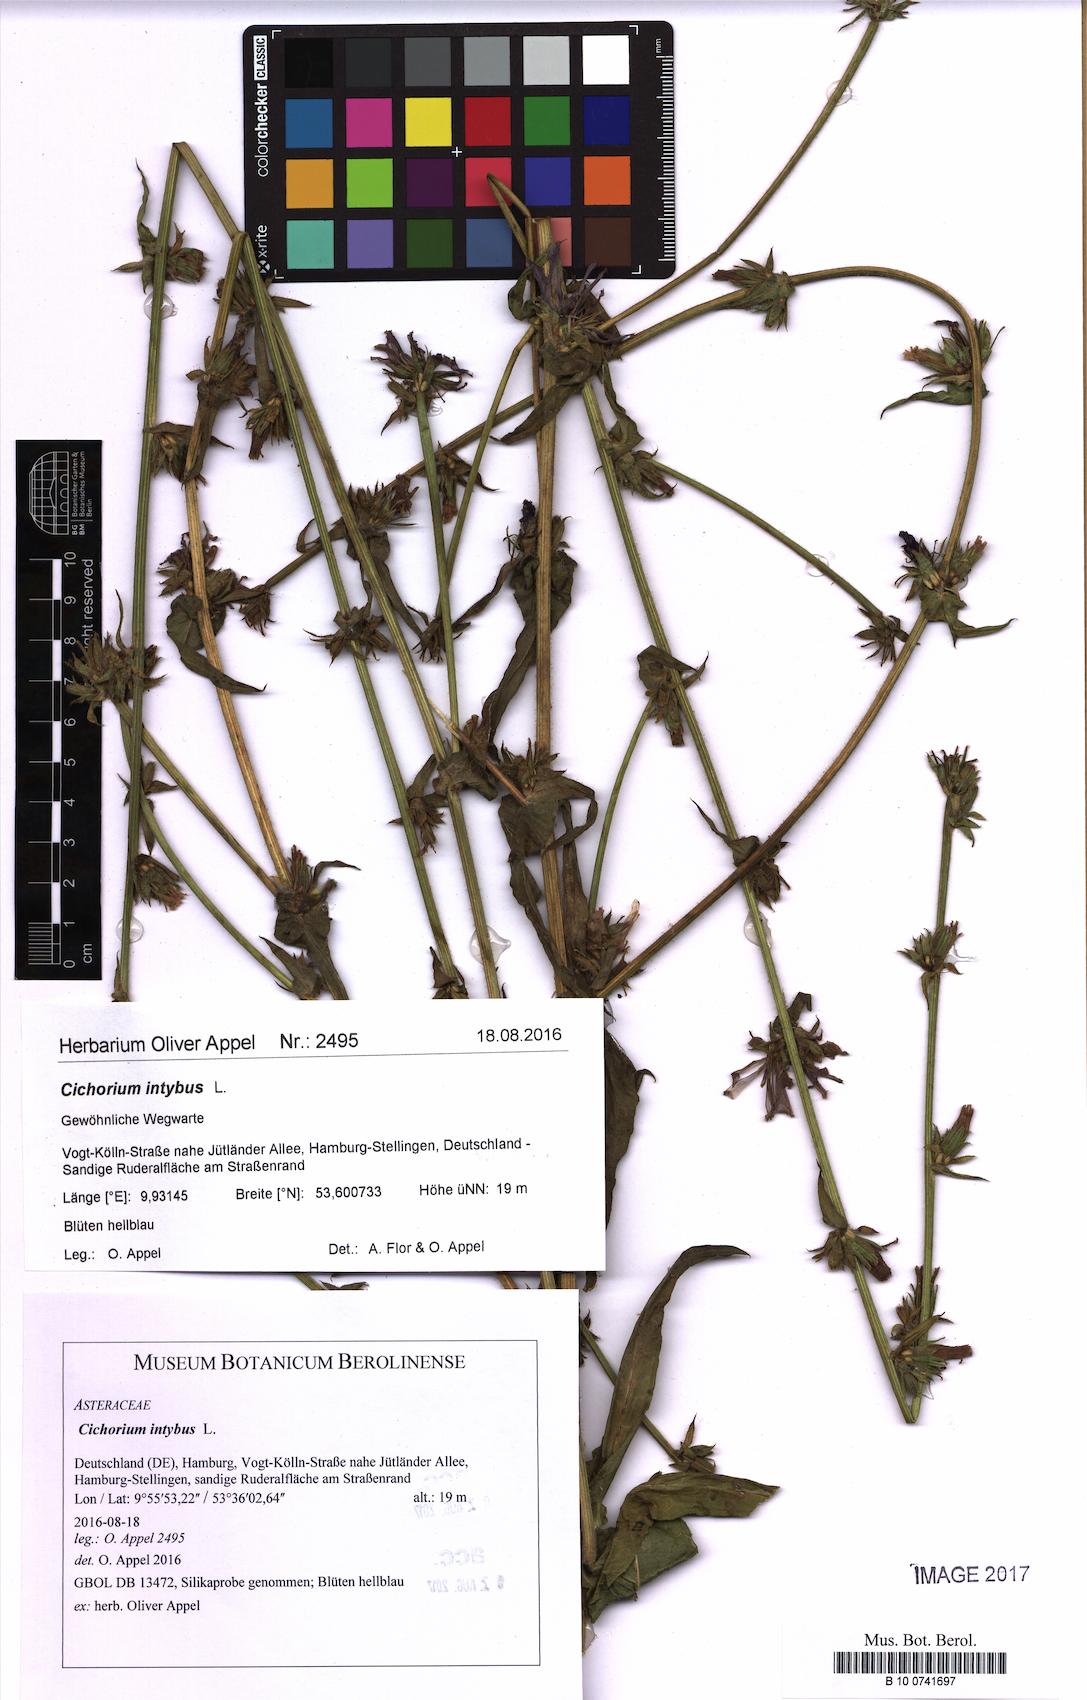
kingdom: Plantae
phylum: Tracheophyta
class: Magnoliopsida
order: Asterales
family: Asteraceae
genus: Cichorium
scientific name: Cichorium intybus
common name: Chicory
